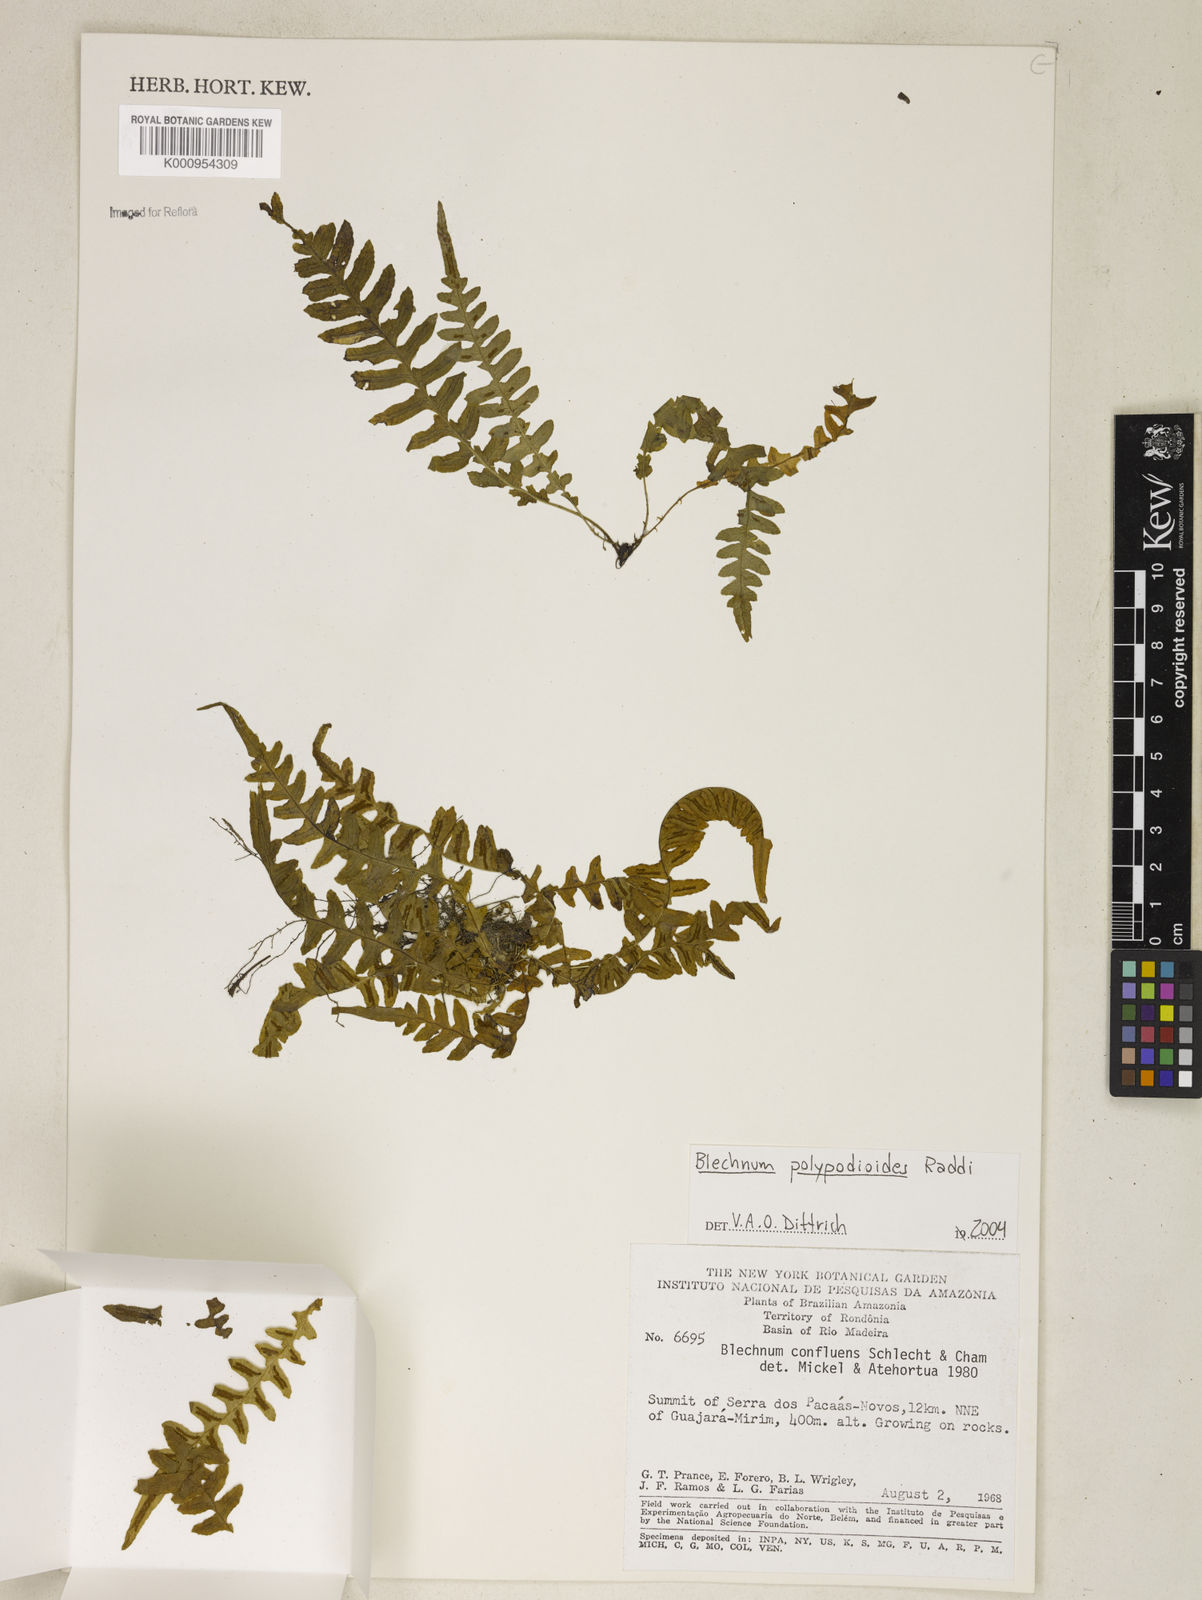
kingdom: Plantae
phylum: Tracheophyta
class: Polypodiopsida
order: Polypodiales
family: Blechnaceae
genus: Blechnum
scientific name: Blechnum confluens
